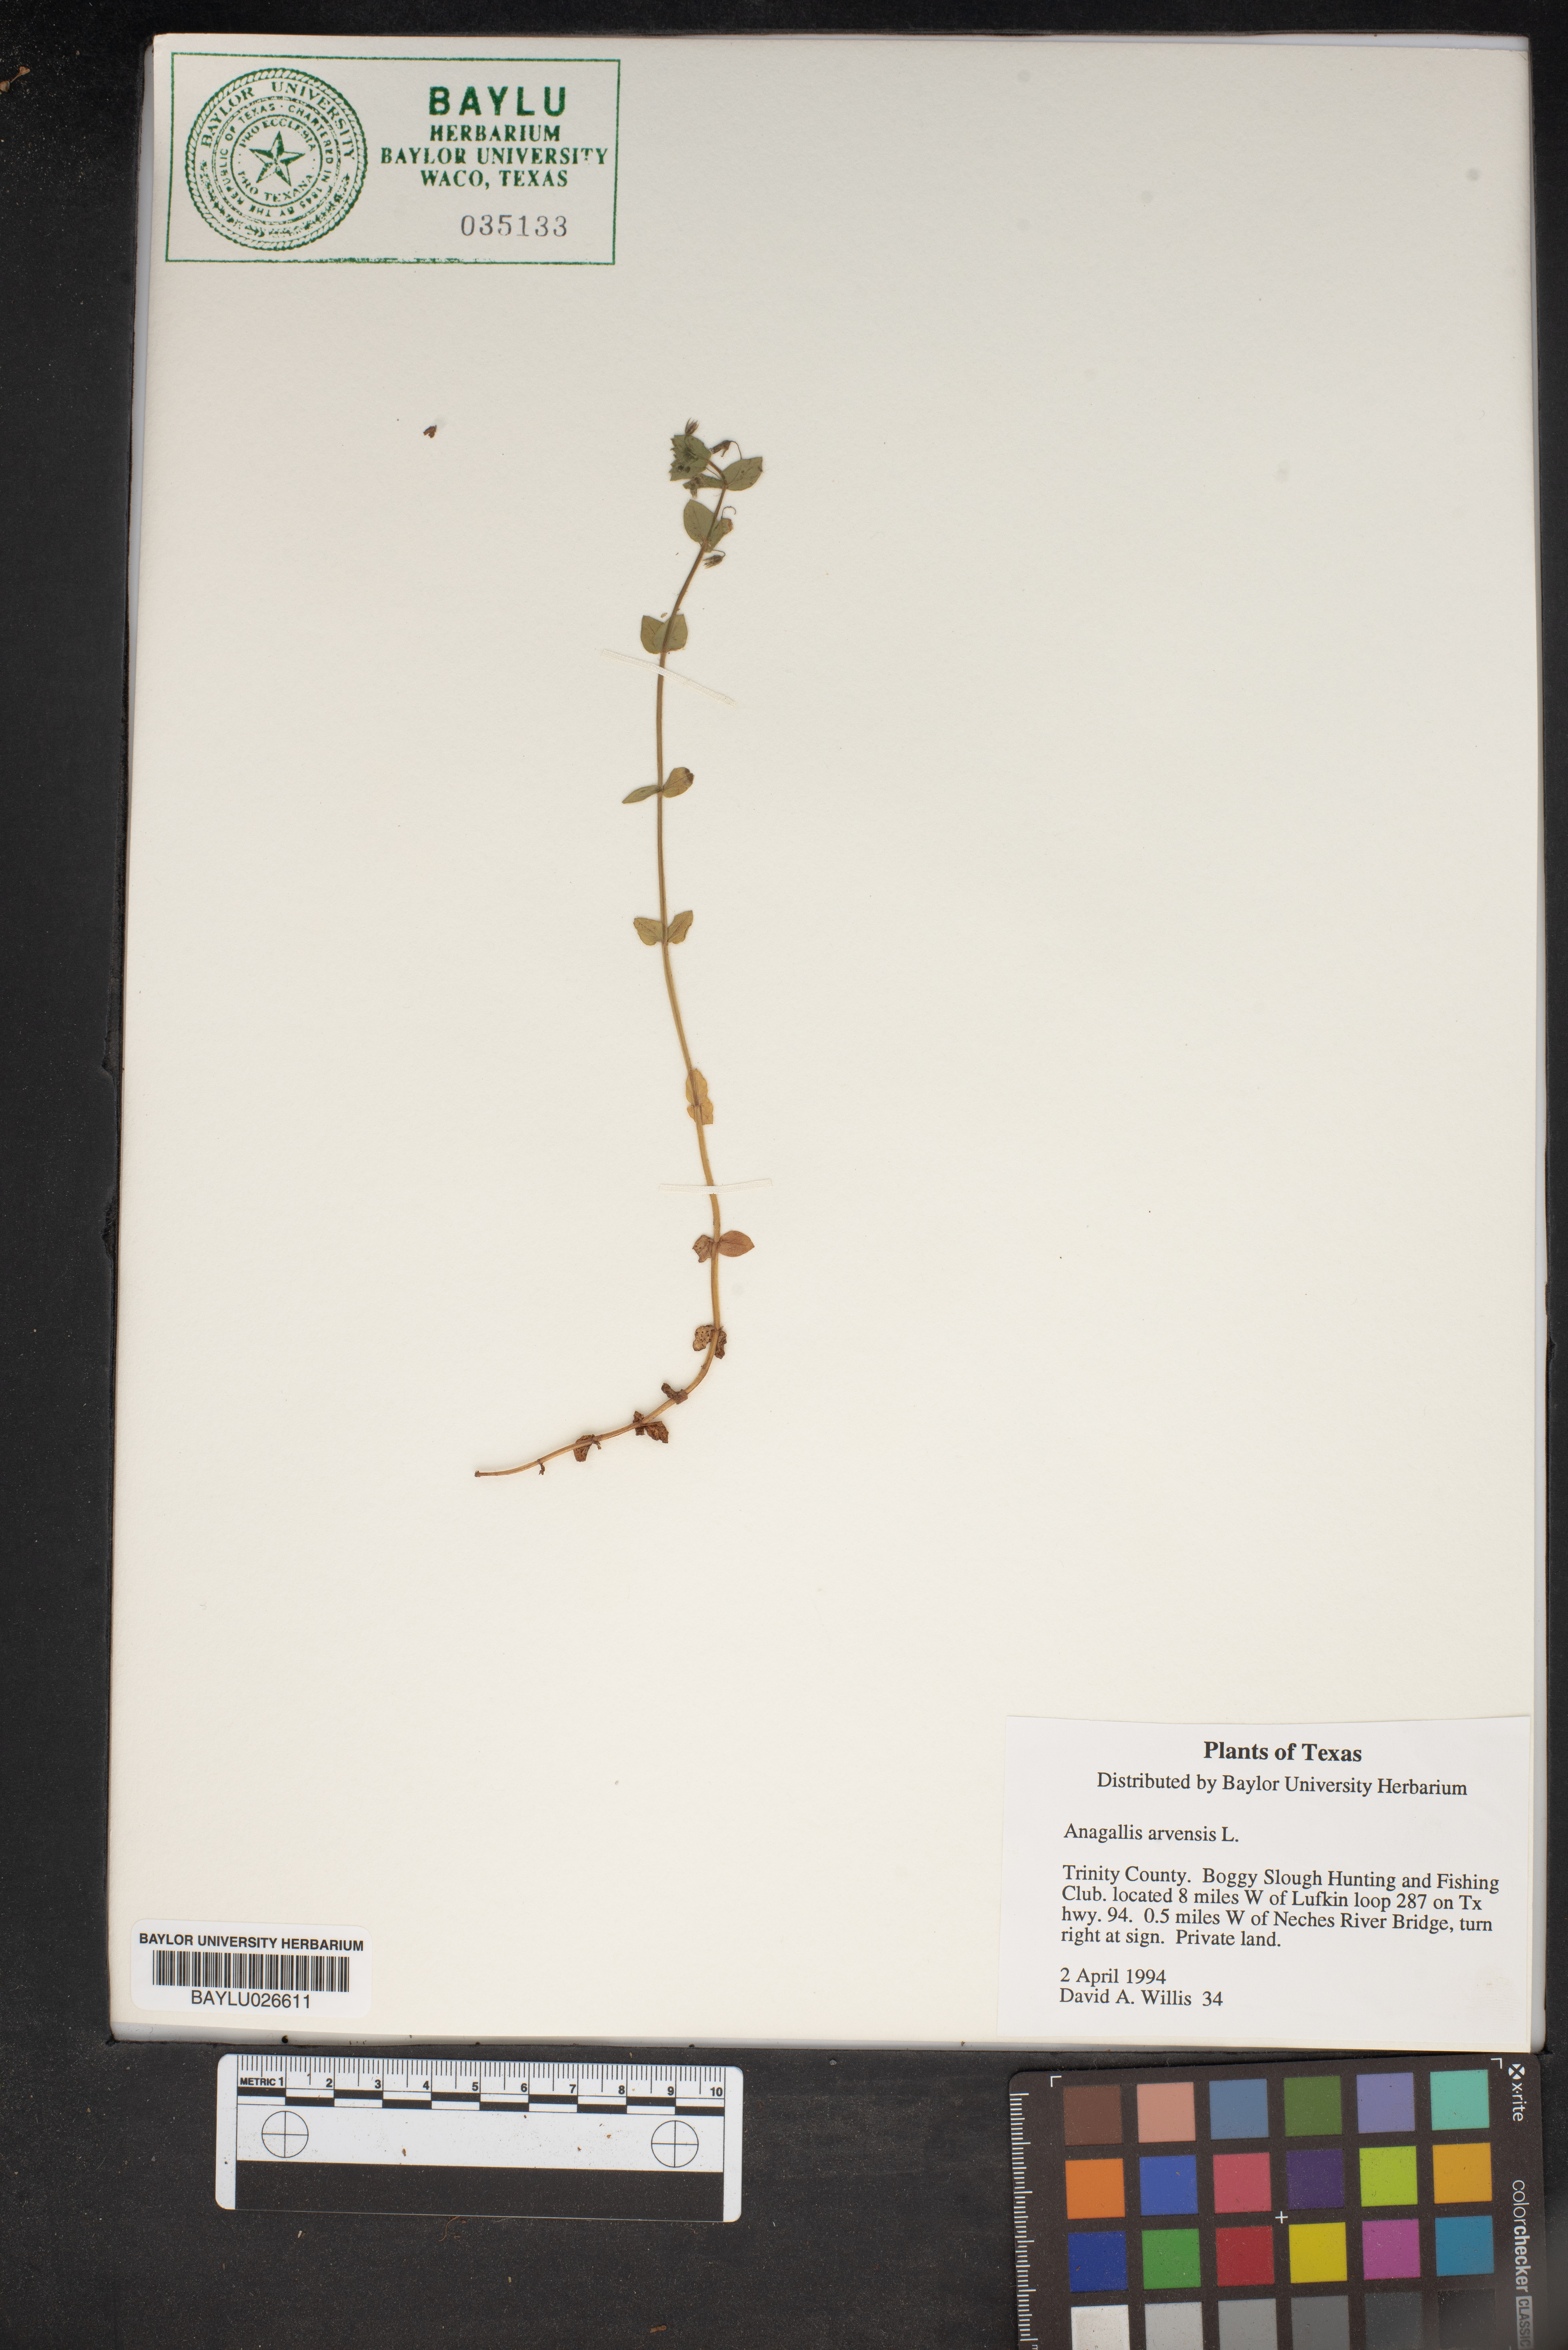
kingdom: Plantae
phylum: Tracheophyta
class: Magnoliopsida
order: Ericales
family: Primulaceae
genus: Lysimachia
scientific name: Lysimachia arvensis
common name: Scarlet pimpernel
